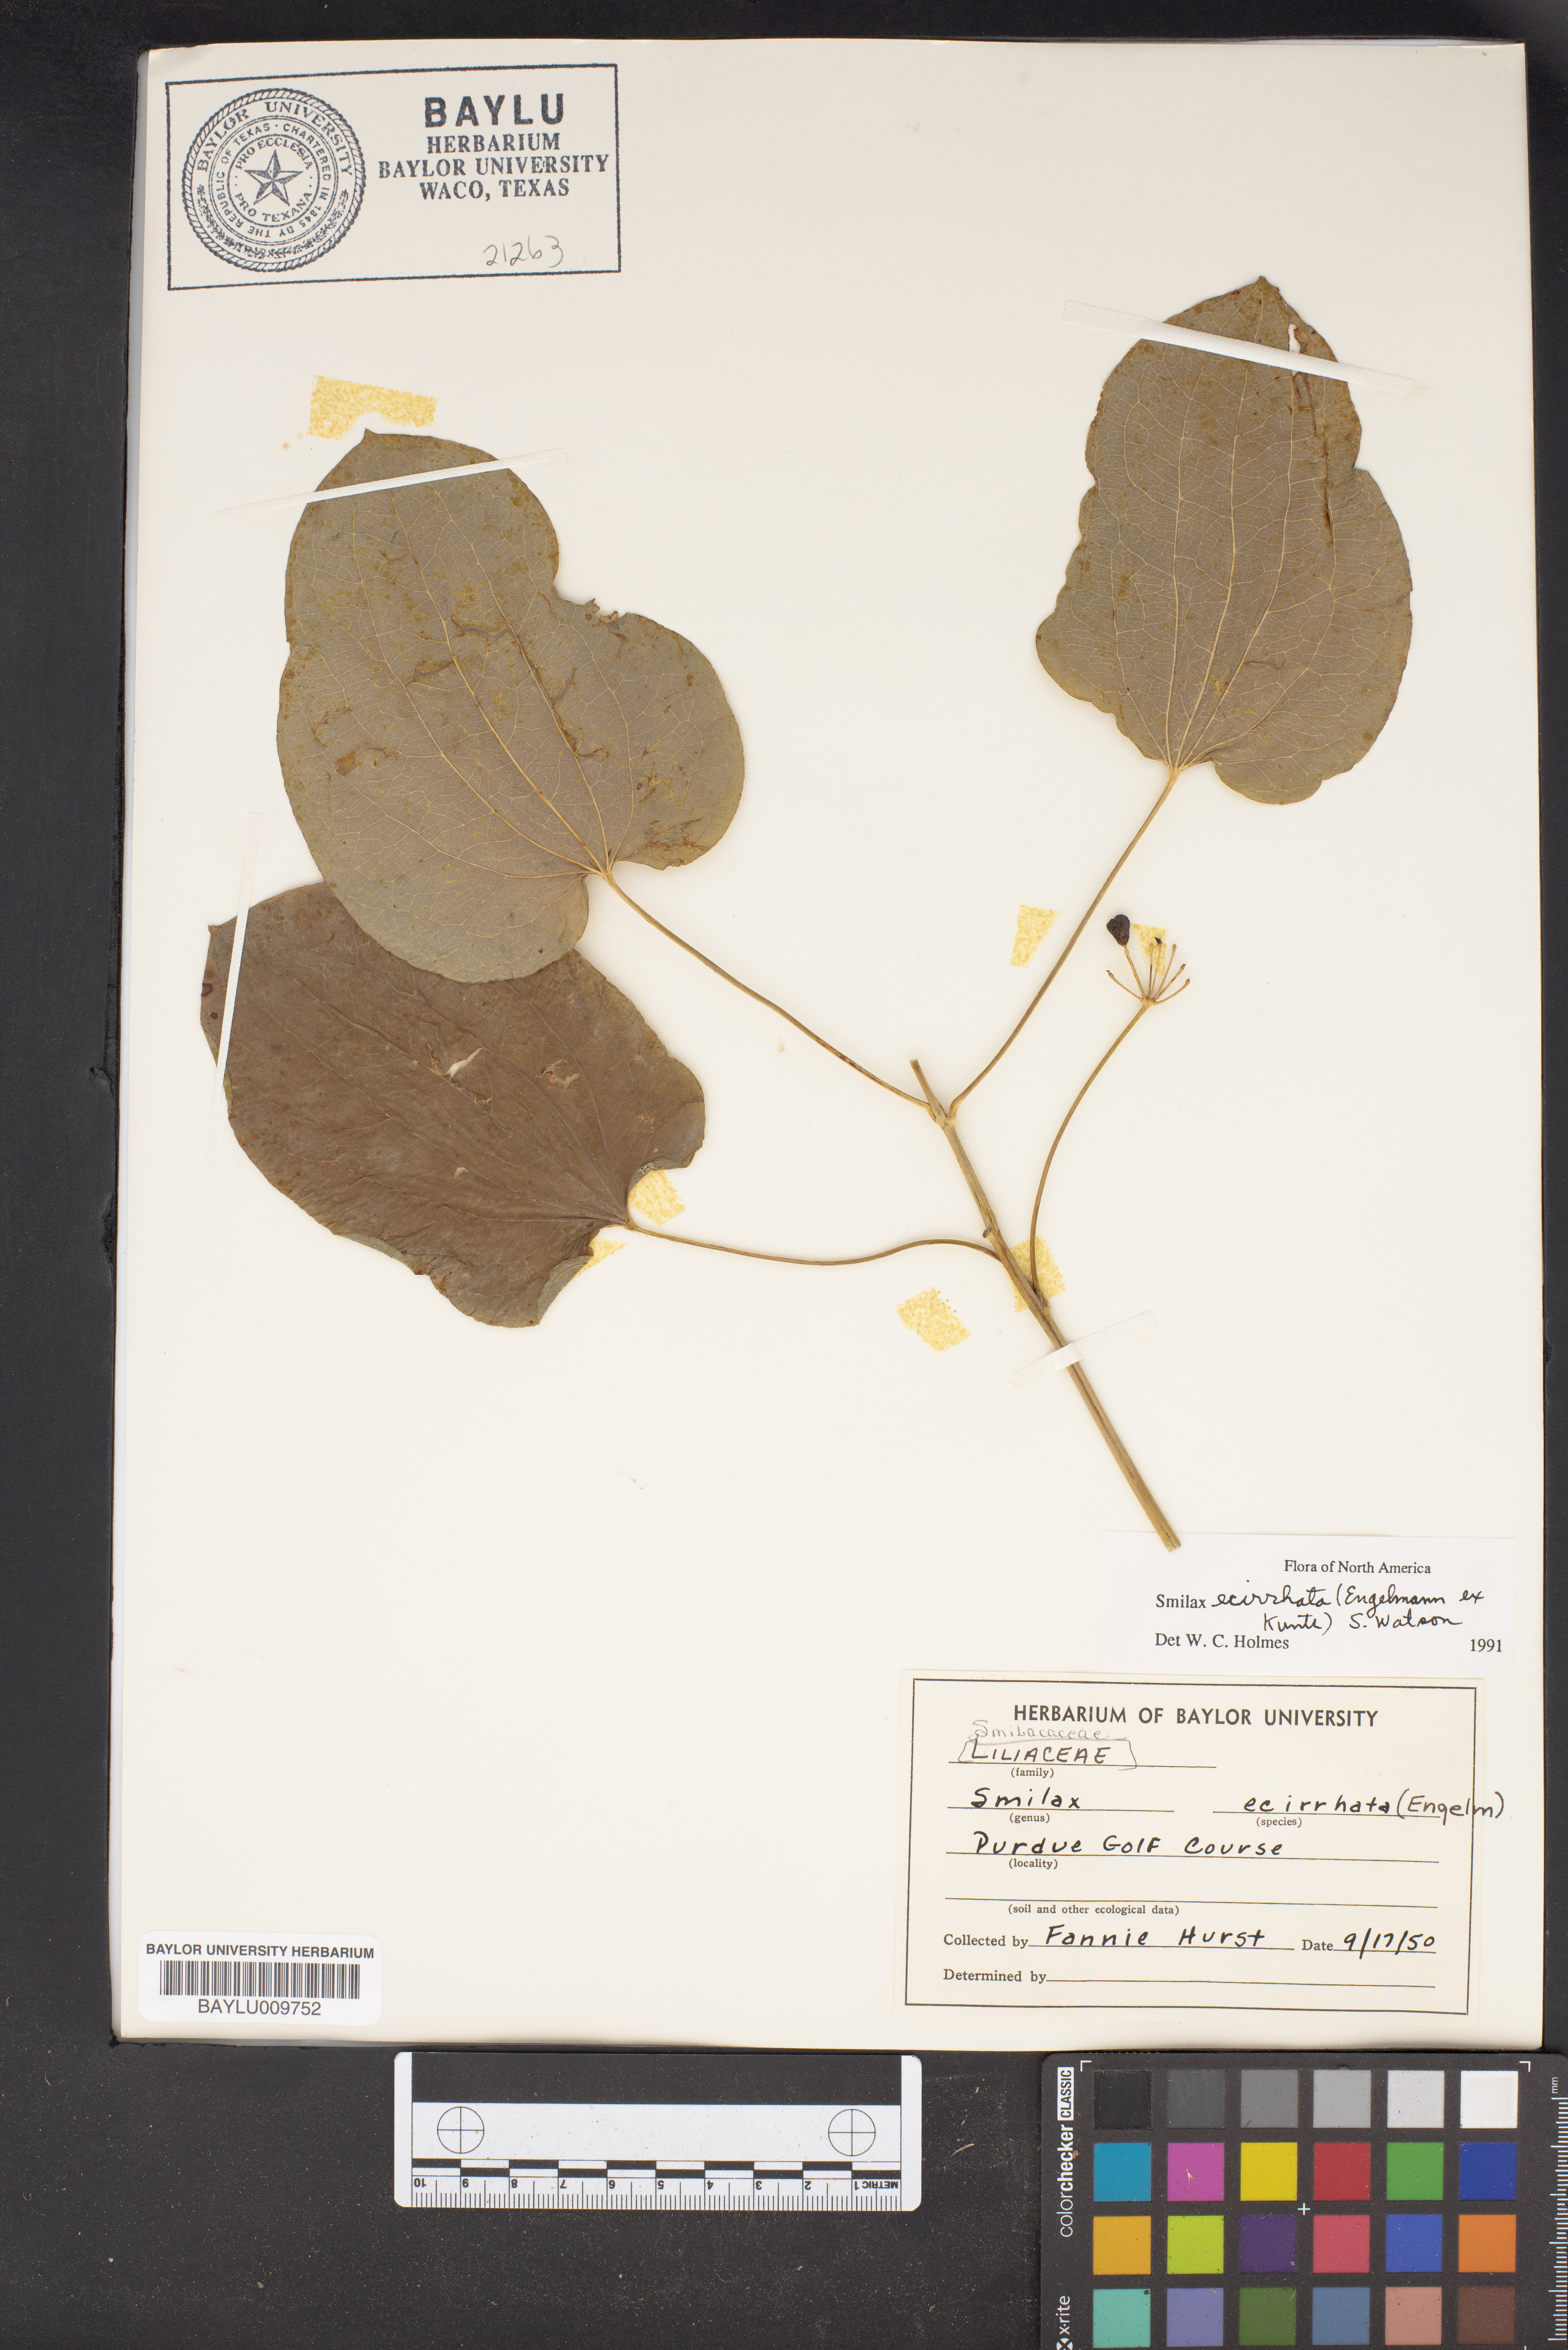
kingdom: Plantae
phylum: Tracheophyta
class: Liliopsida
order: Liliales
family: Smilacaceae
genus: Smilax
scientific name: Smilax ecirrhata
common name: Upright carrionflower
